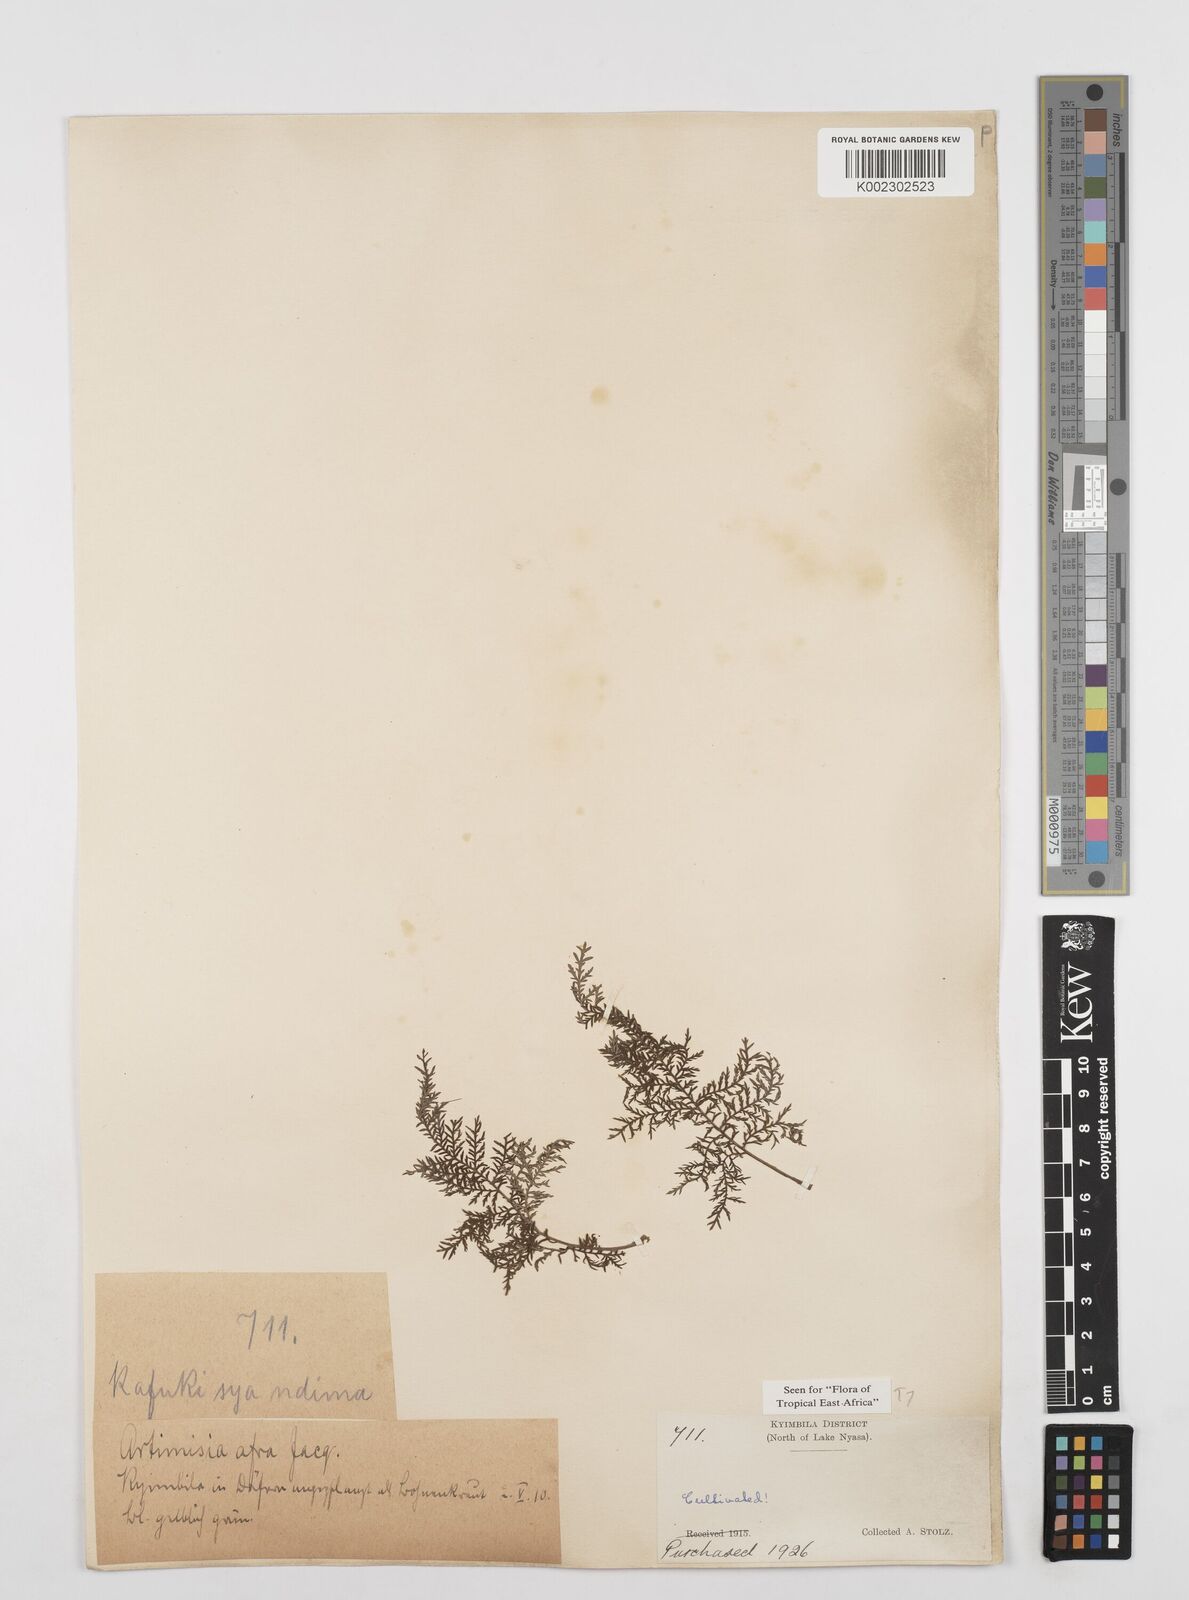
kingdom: Plantae
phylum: Tracheophyta
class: Magnoliopsida
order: Asterales
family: Asteraceae
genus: Artemisia
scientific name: Artemisia afra
